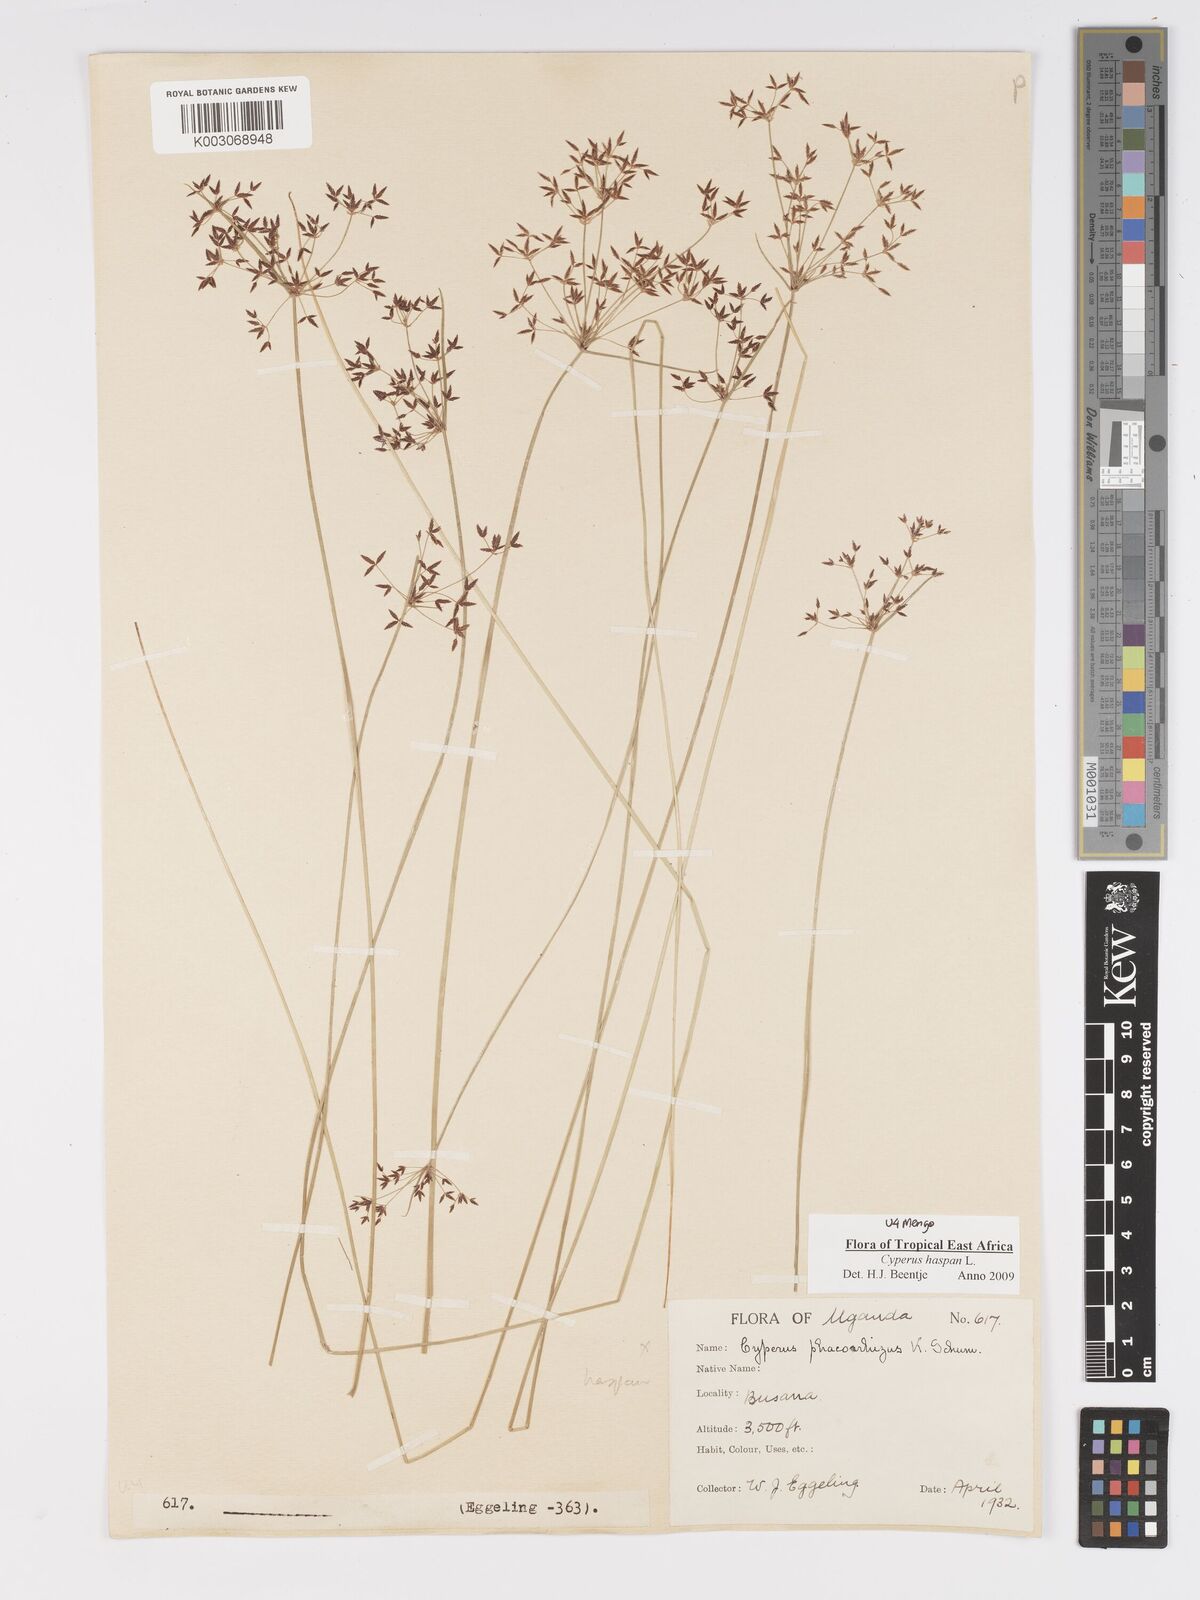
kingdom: Plantae
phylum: Tracheophyta
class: Liliopsida
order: Poales
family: Cyperaceae
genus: Cyperus
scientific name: Cyperus haspan
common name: Haspan flatsedge
